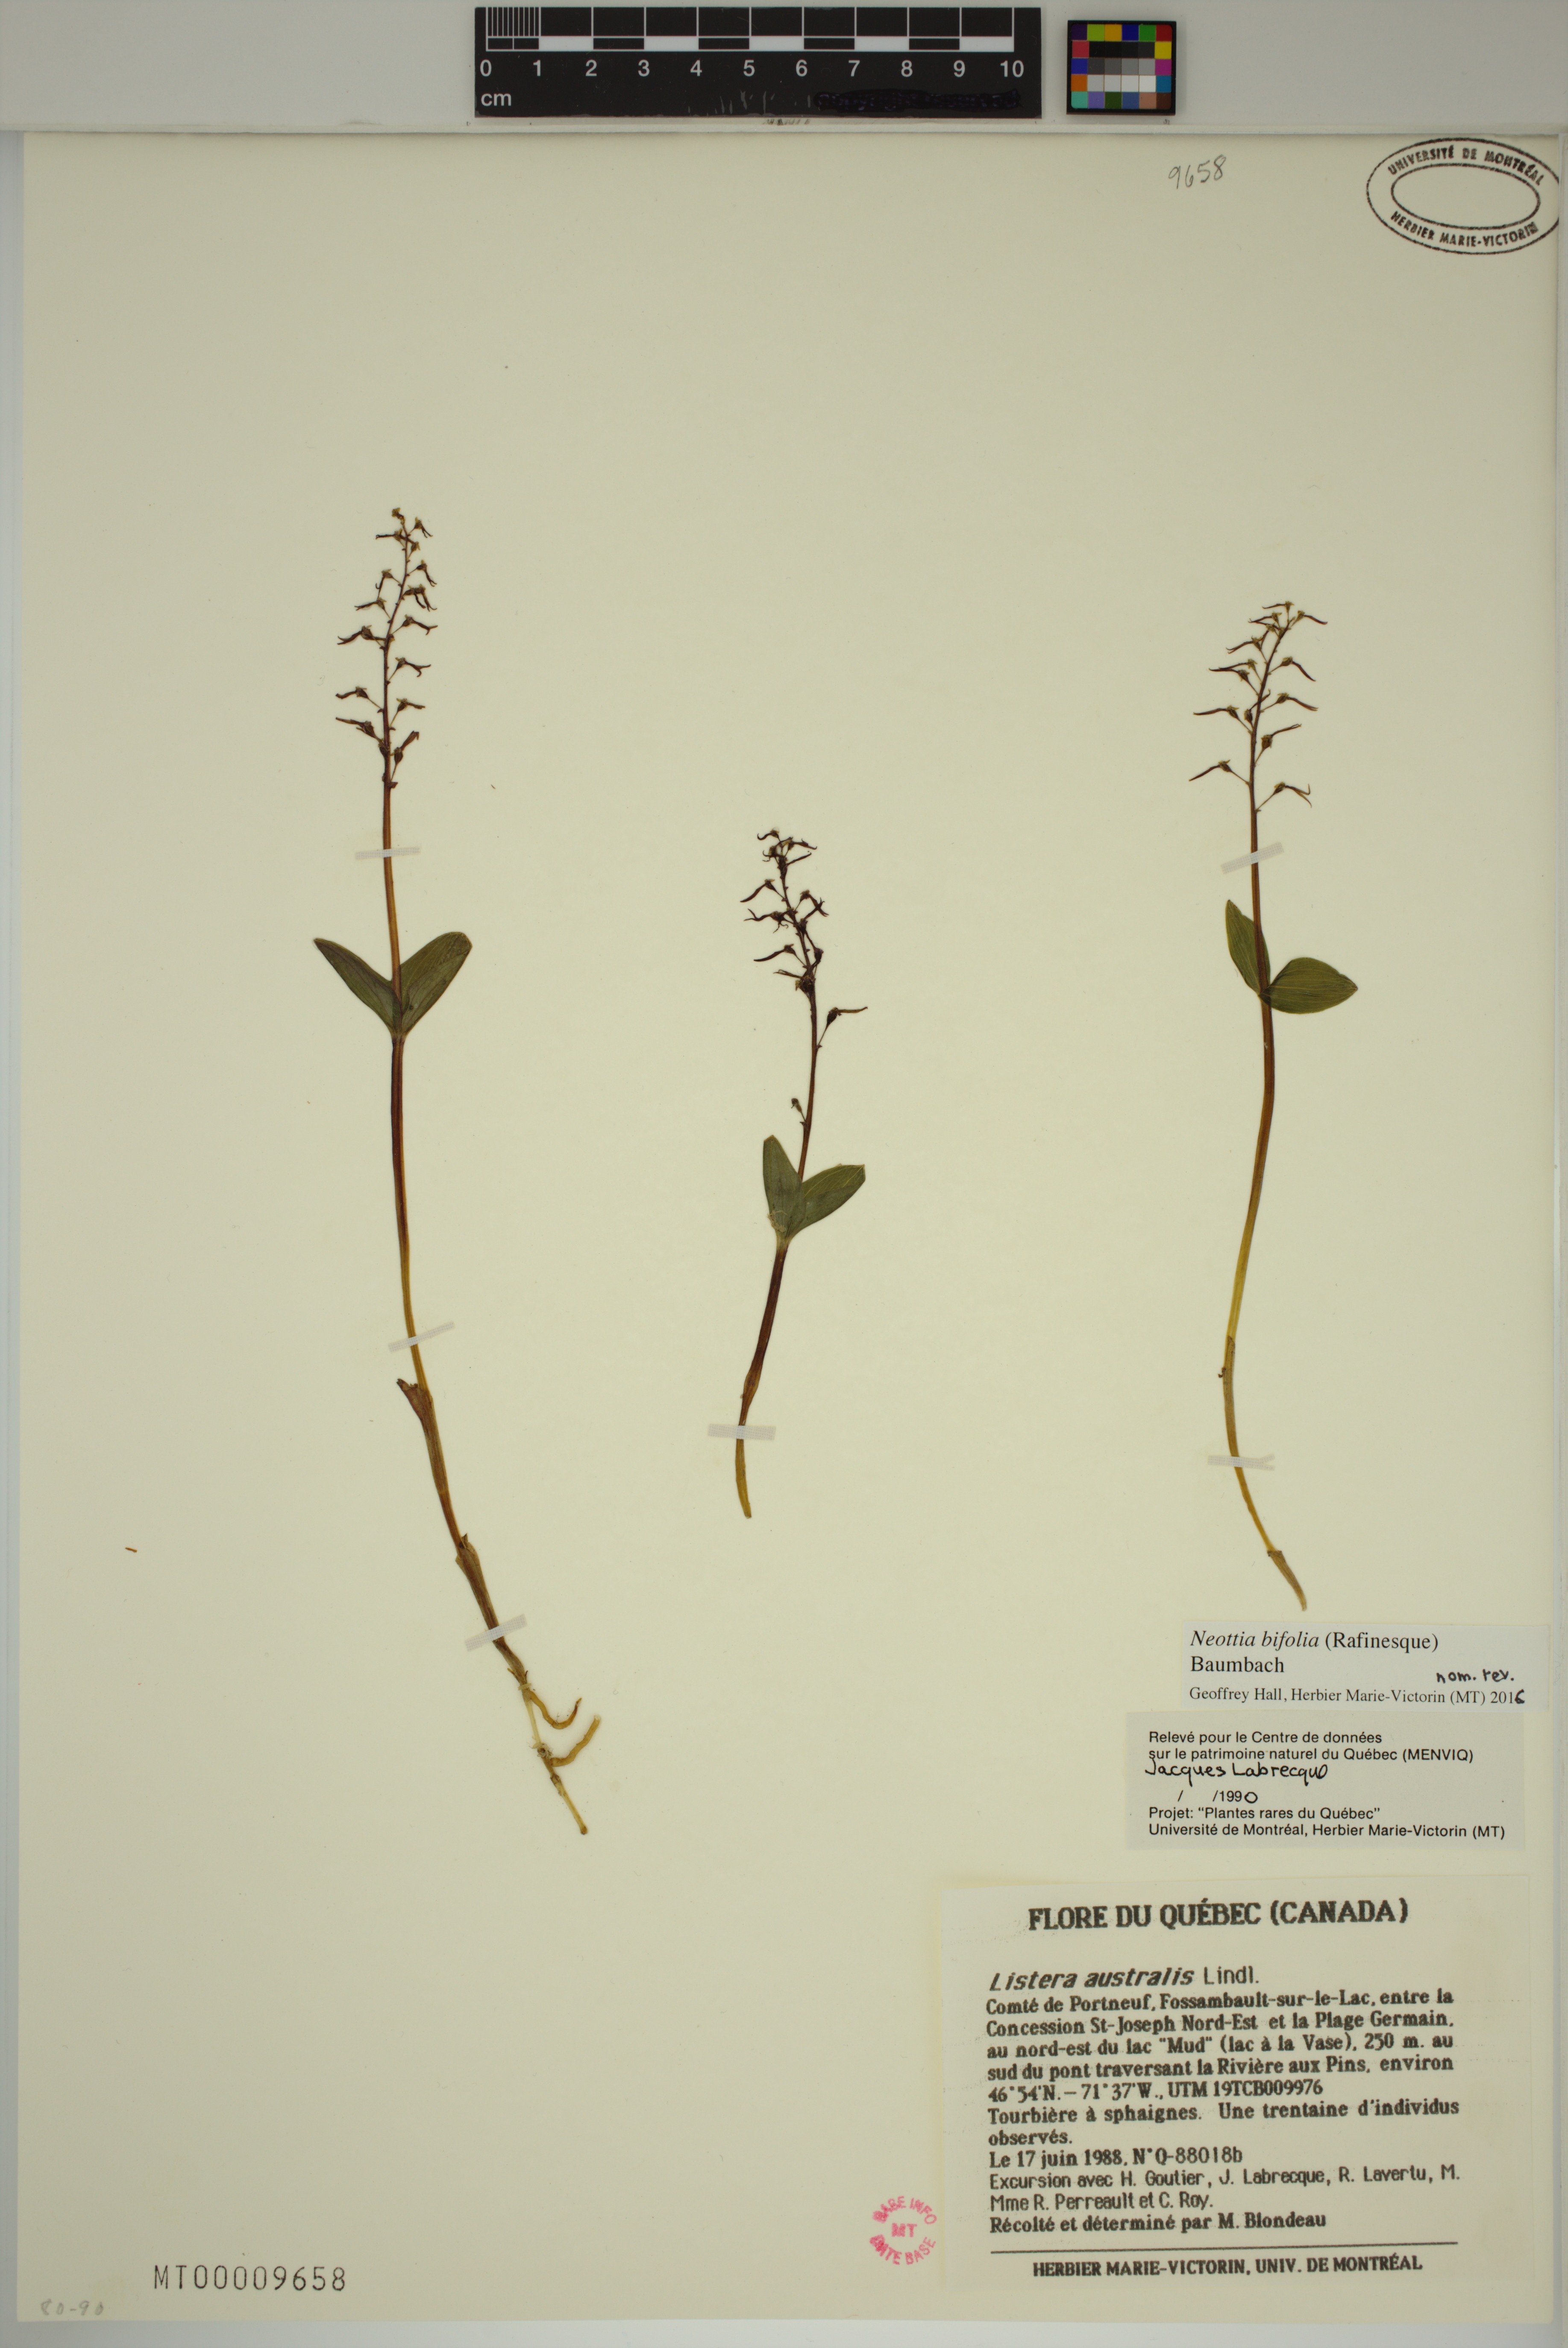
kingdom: Plantae
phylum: Tracheophyta
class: Liliopsida
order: Asparagales
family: Orchidaceae
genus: Neottia
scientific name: Neottia bifolia
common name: Southern twayblade
